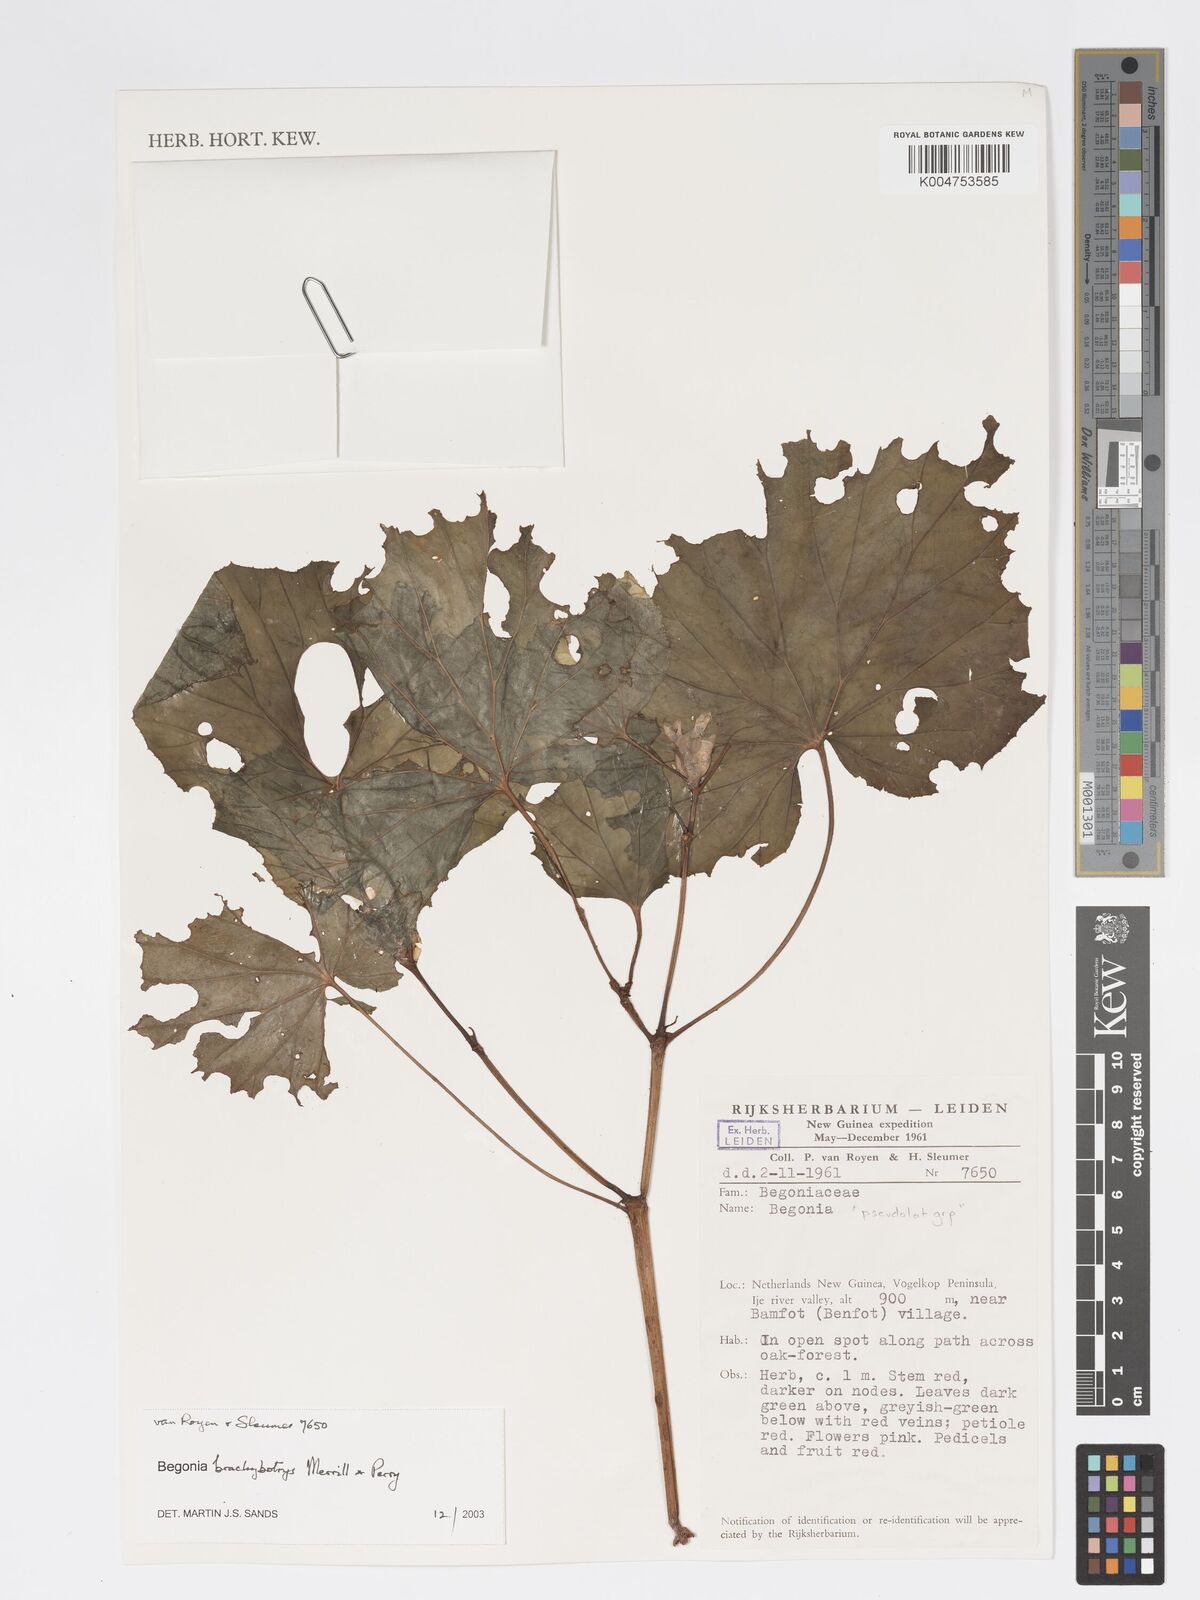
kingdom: Plantae
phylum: Tracheophyta
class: Magnoliopsida
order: Cucurbitales
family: Begoniaceae
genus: Begonia
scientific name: Begonia brachybotrys
